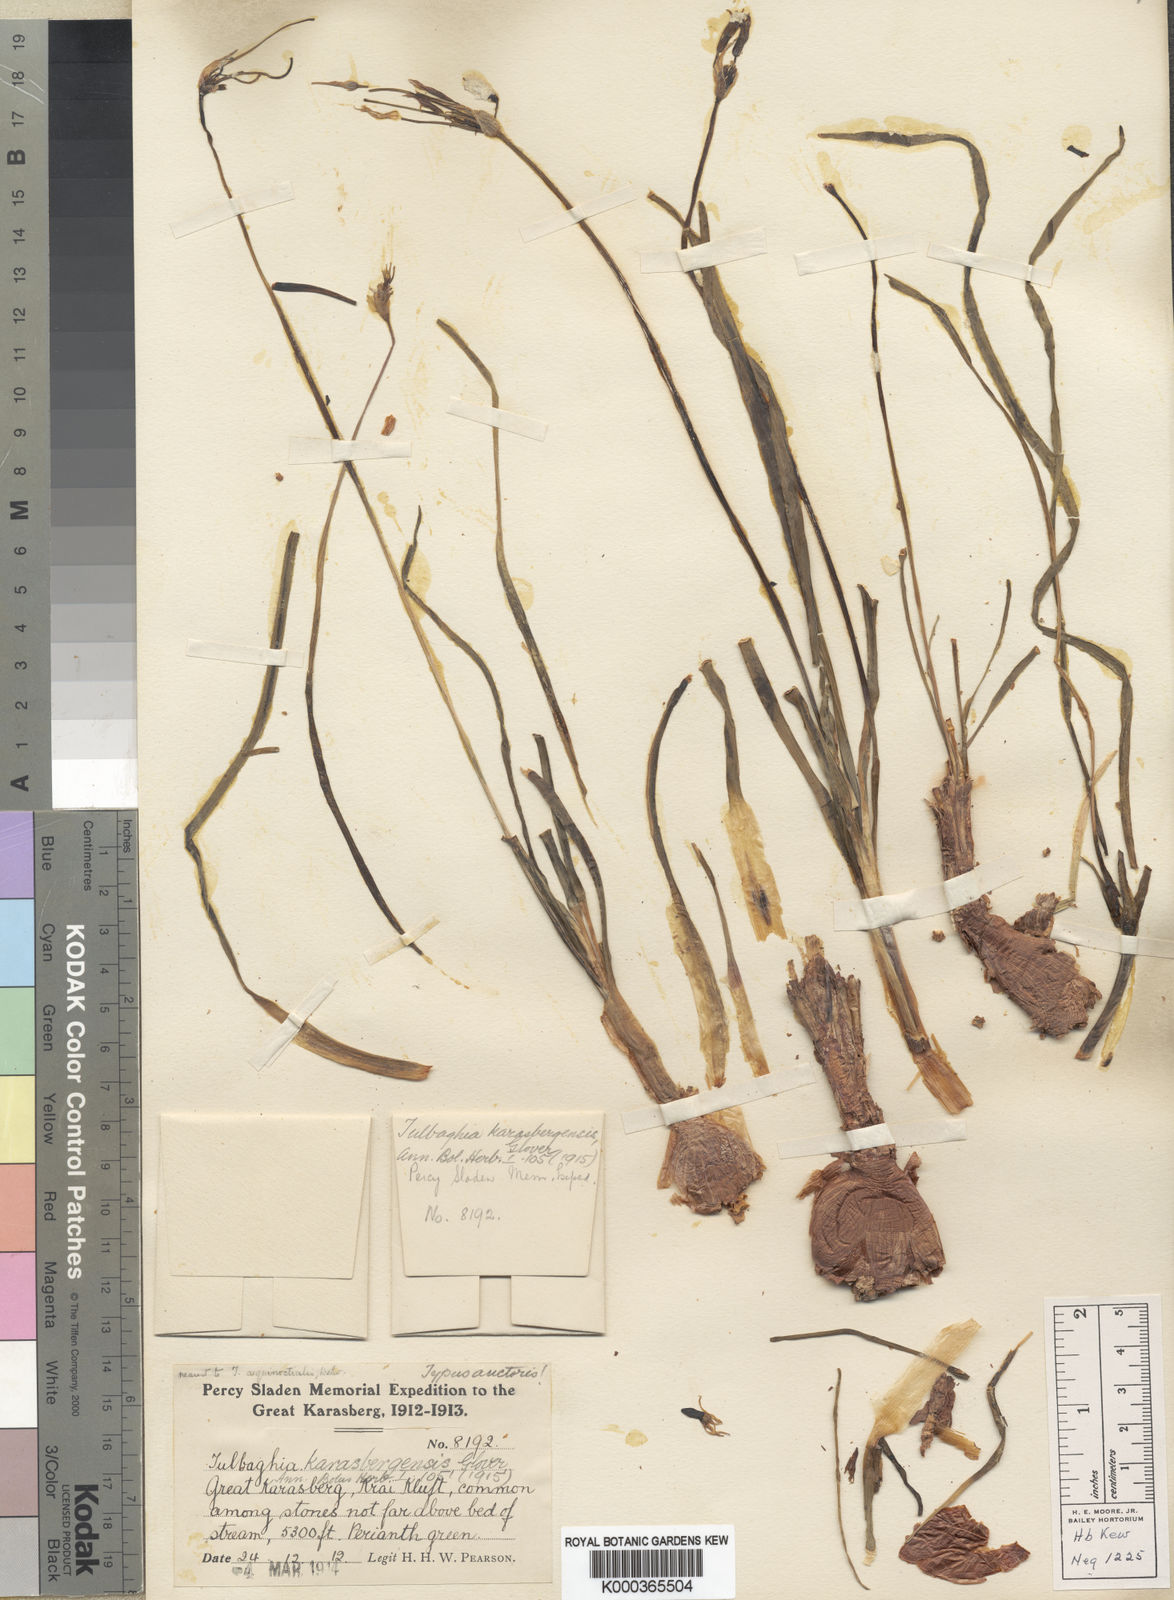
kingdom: Plantae
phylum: Tracheophyta
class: Liliopsida
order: Asparagales
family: Amaryllidaceae
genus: Tulbaghia
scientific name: Tulbaghia tenuior
